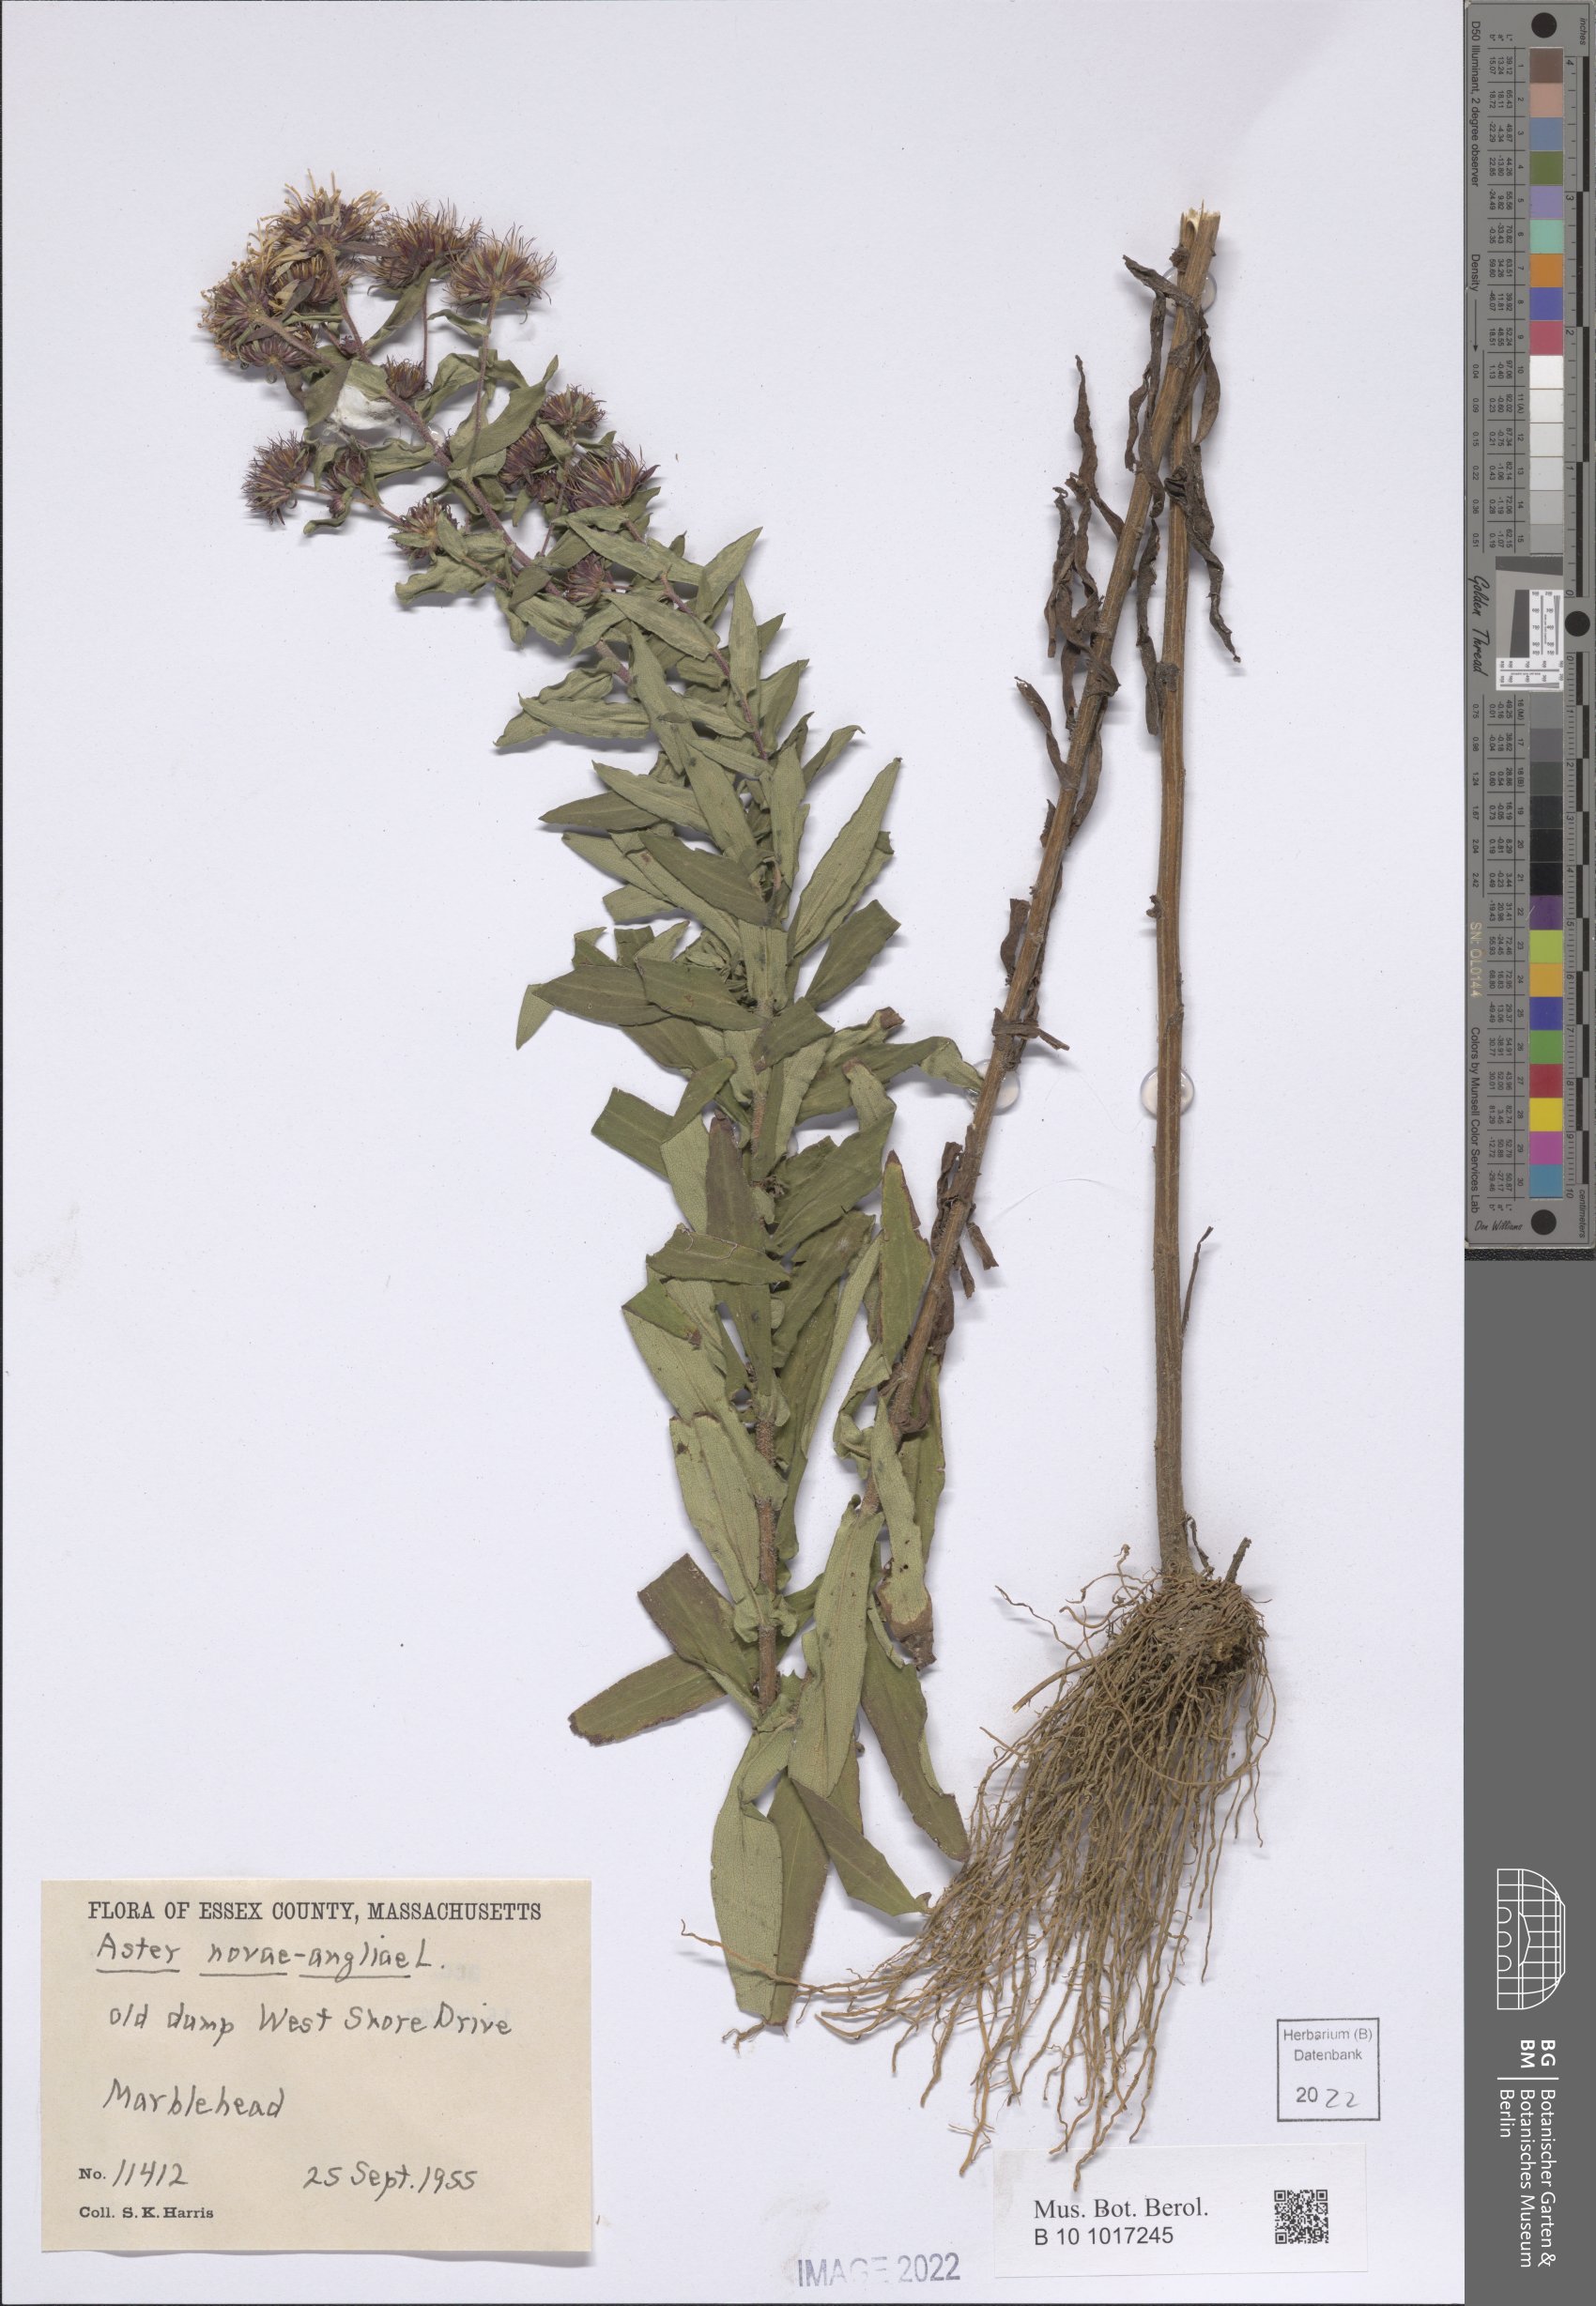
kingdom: Plantae
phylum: Tracheophyta
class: Magnoliopsida
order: Asterales
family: Asteraceae
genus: Symphyotrichum
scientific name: Symphyotrichum novae-angliae
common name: Michaelmas daisy
